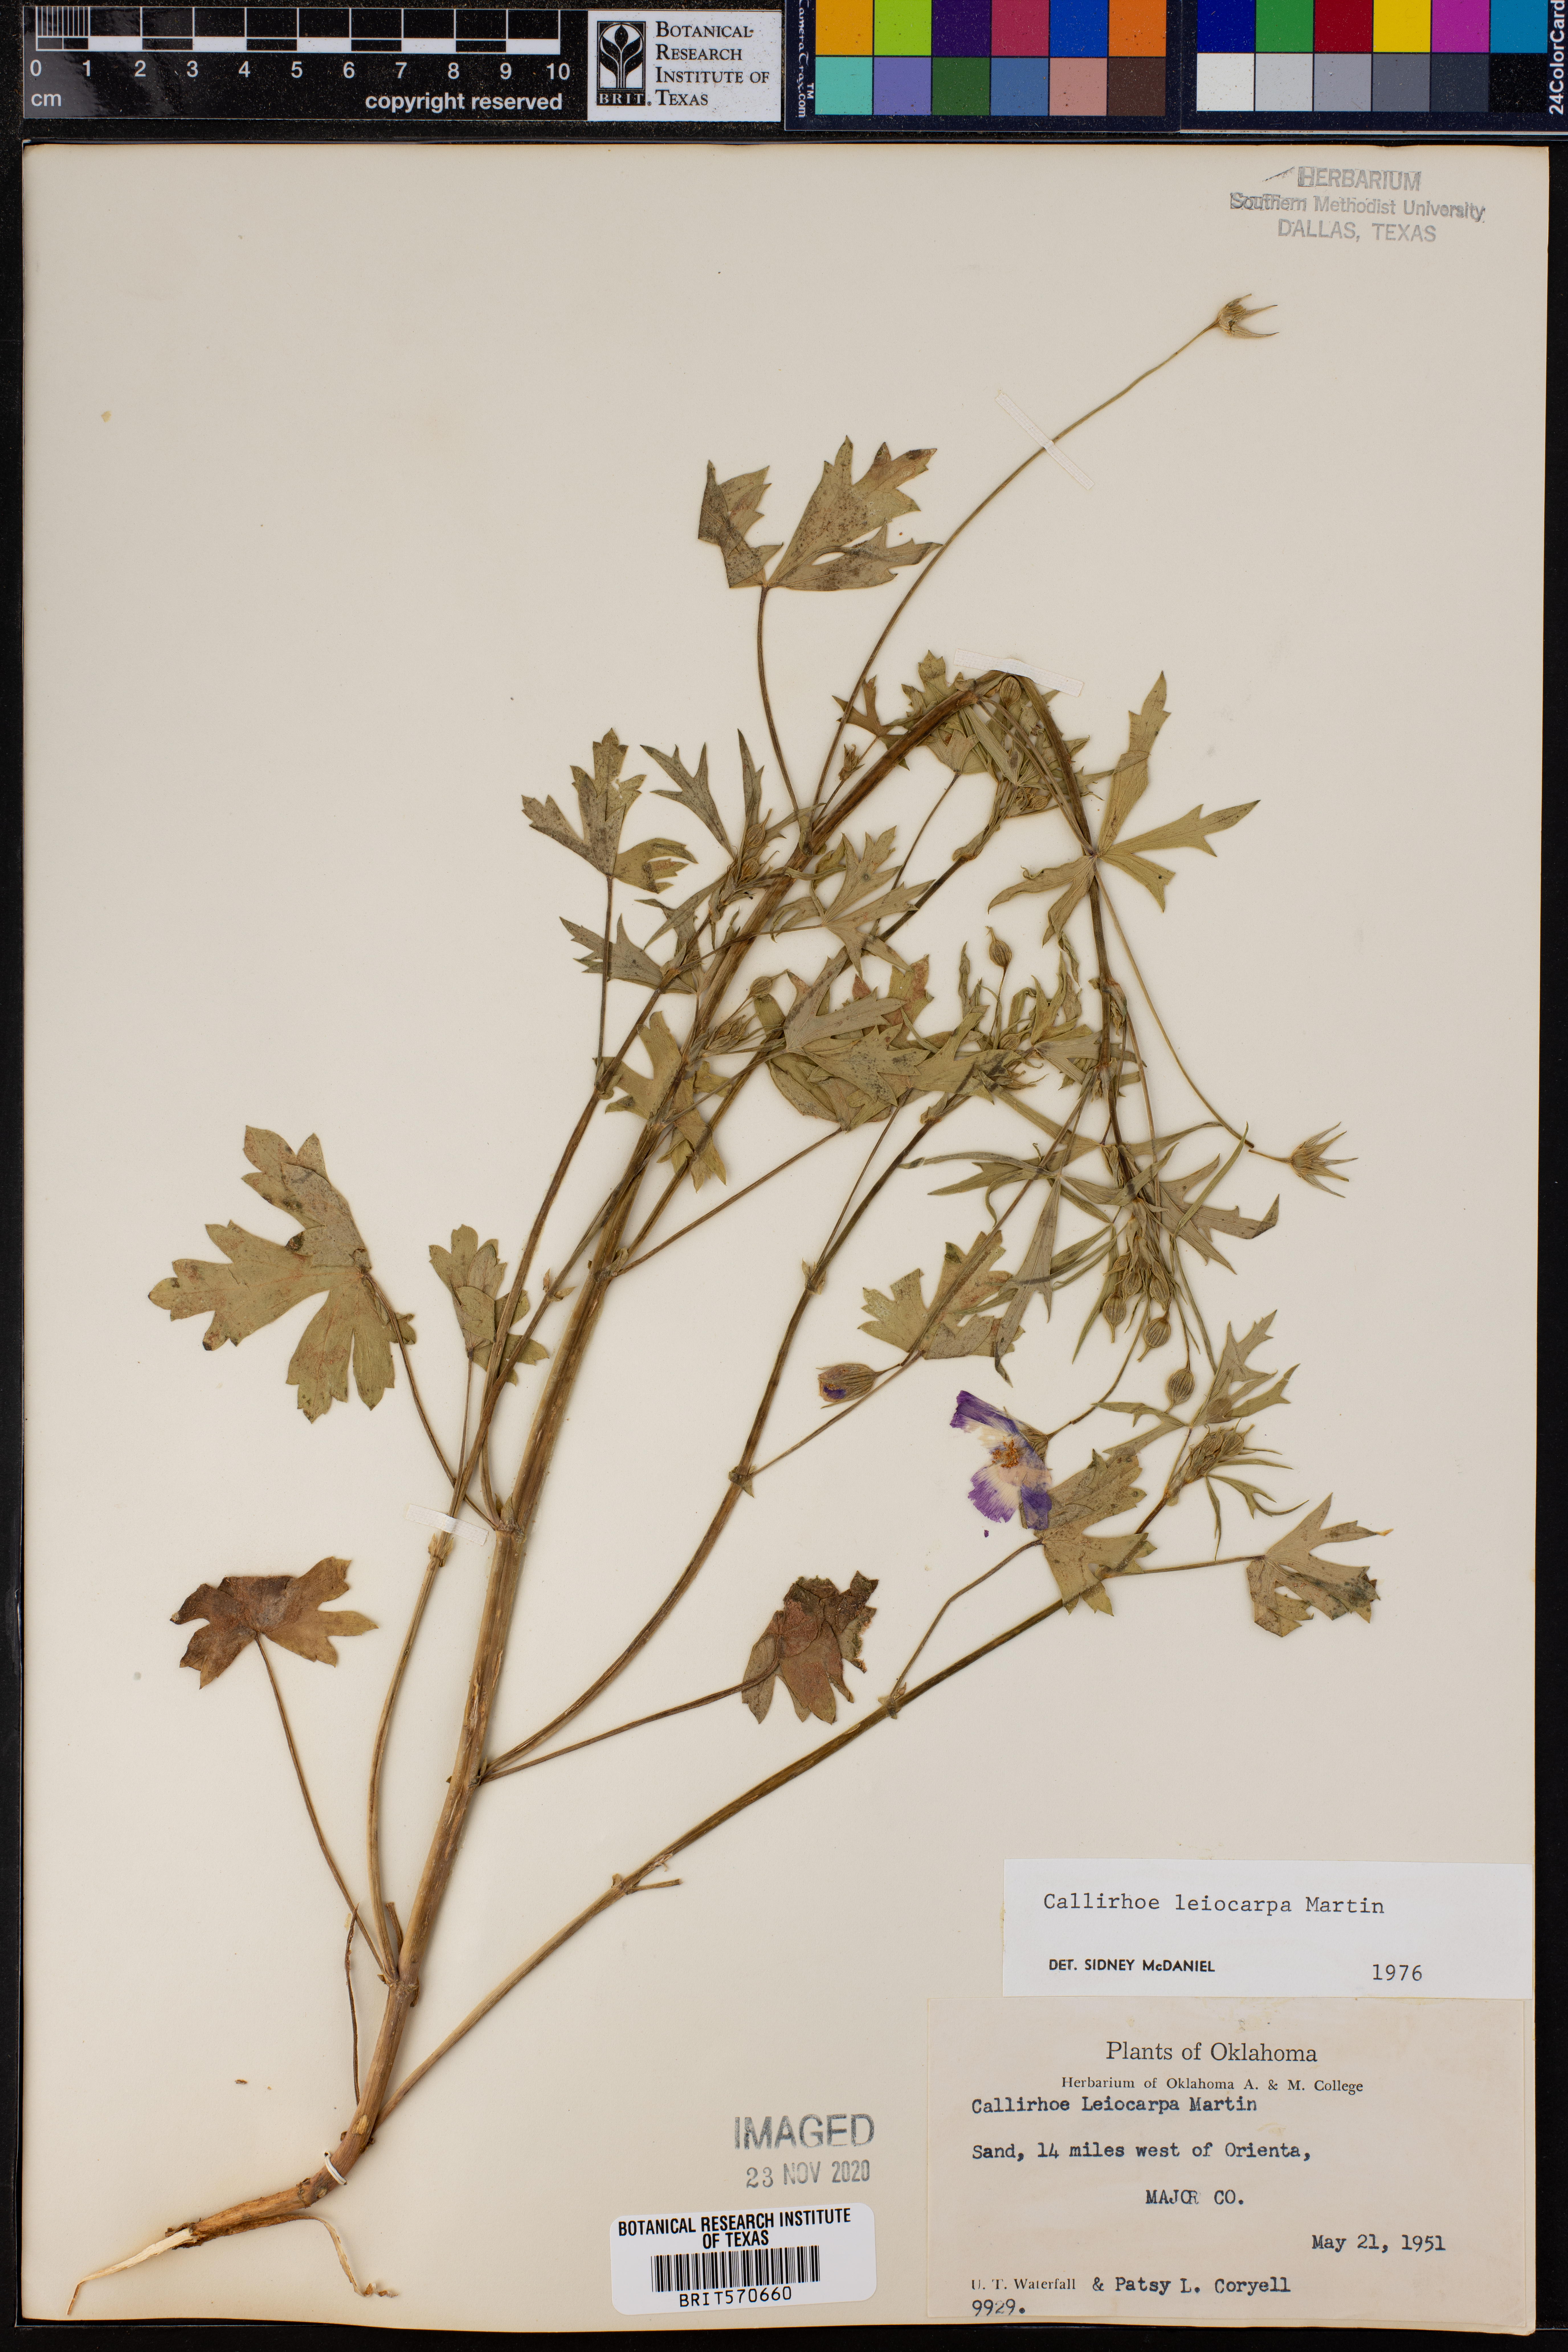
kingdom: Plantae
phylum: Tracheophyta
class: Magnoliopsida
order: Malvales
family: Malvaceae
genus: Callirhoe
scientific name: Callirhoe leiocarpa
